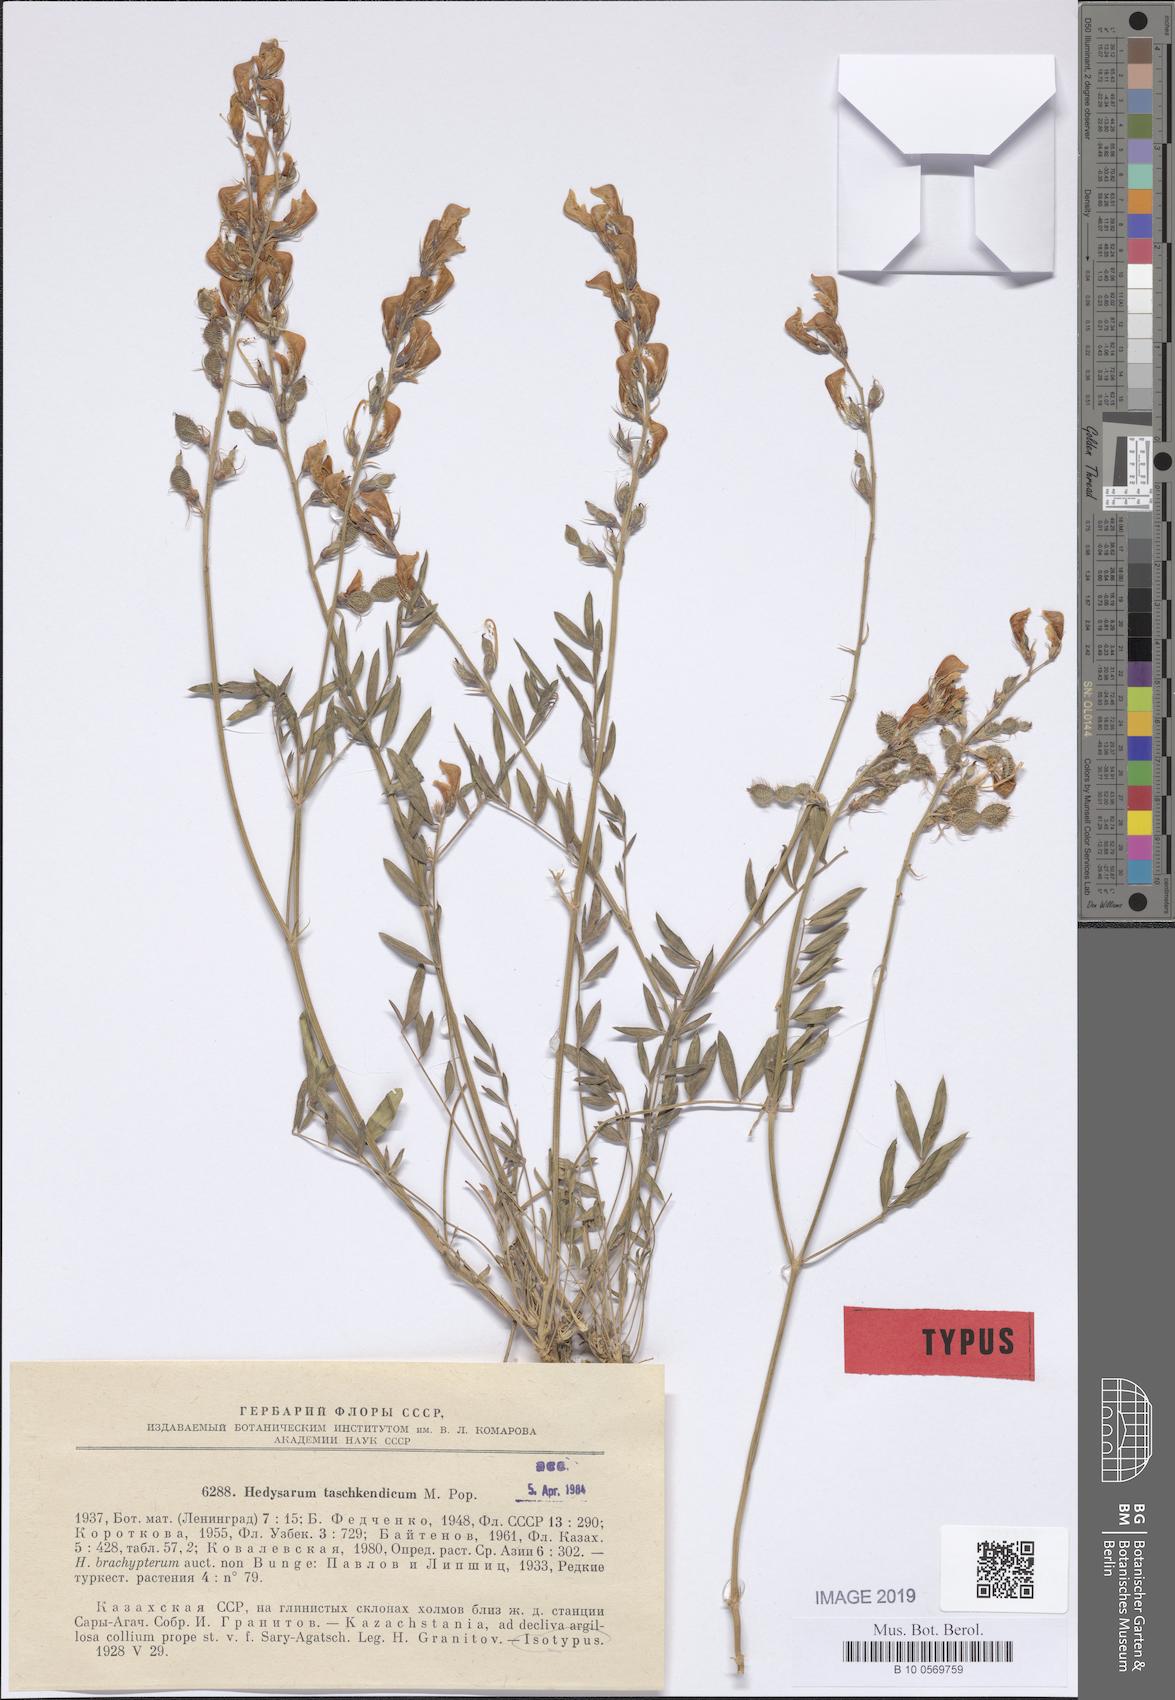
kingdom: Plantae
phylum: Tracheophyta
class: Magnoliopsida
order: Fabales
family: Fabaceae
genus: Hedysarum
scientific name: Hedysarum taschkendicum
